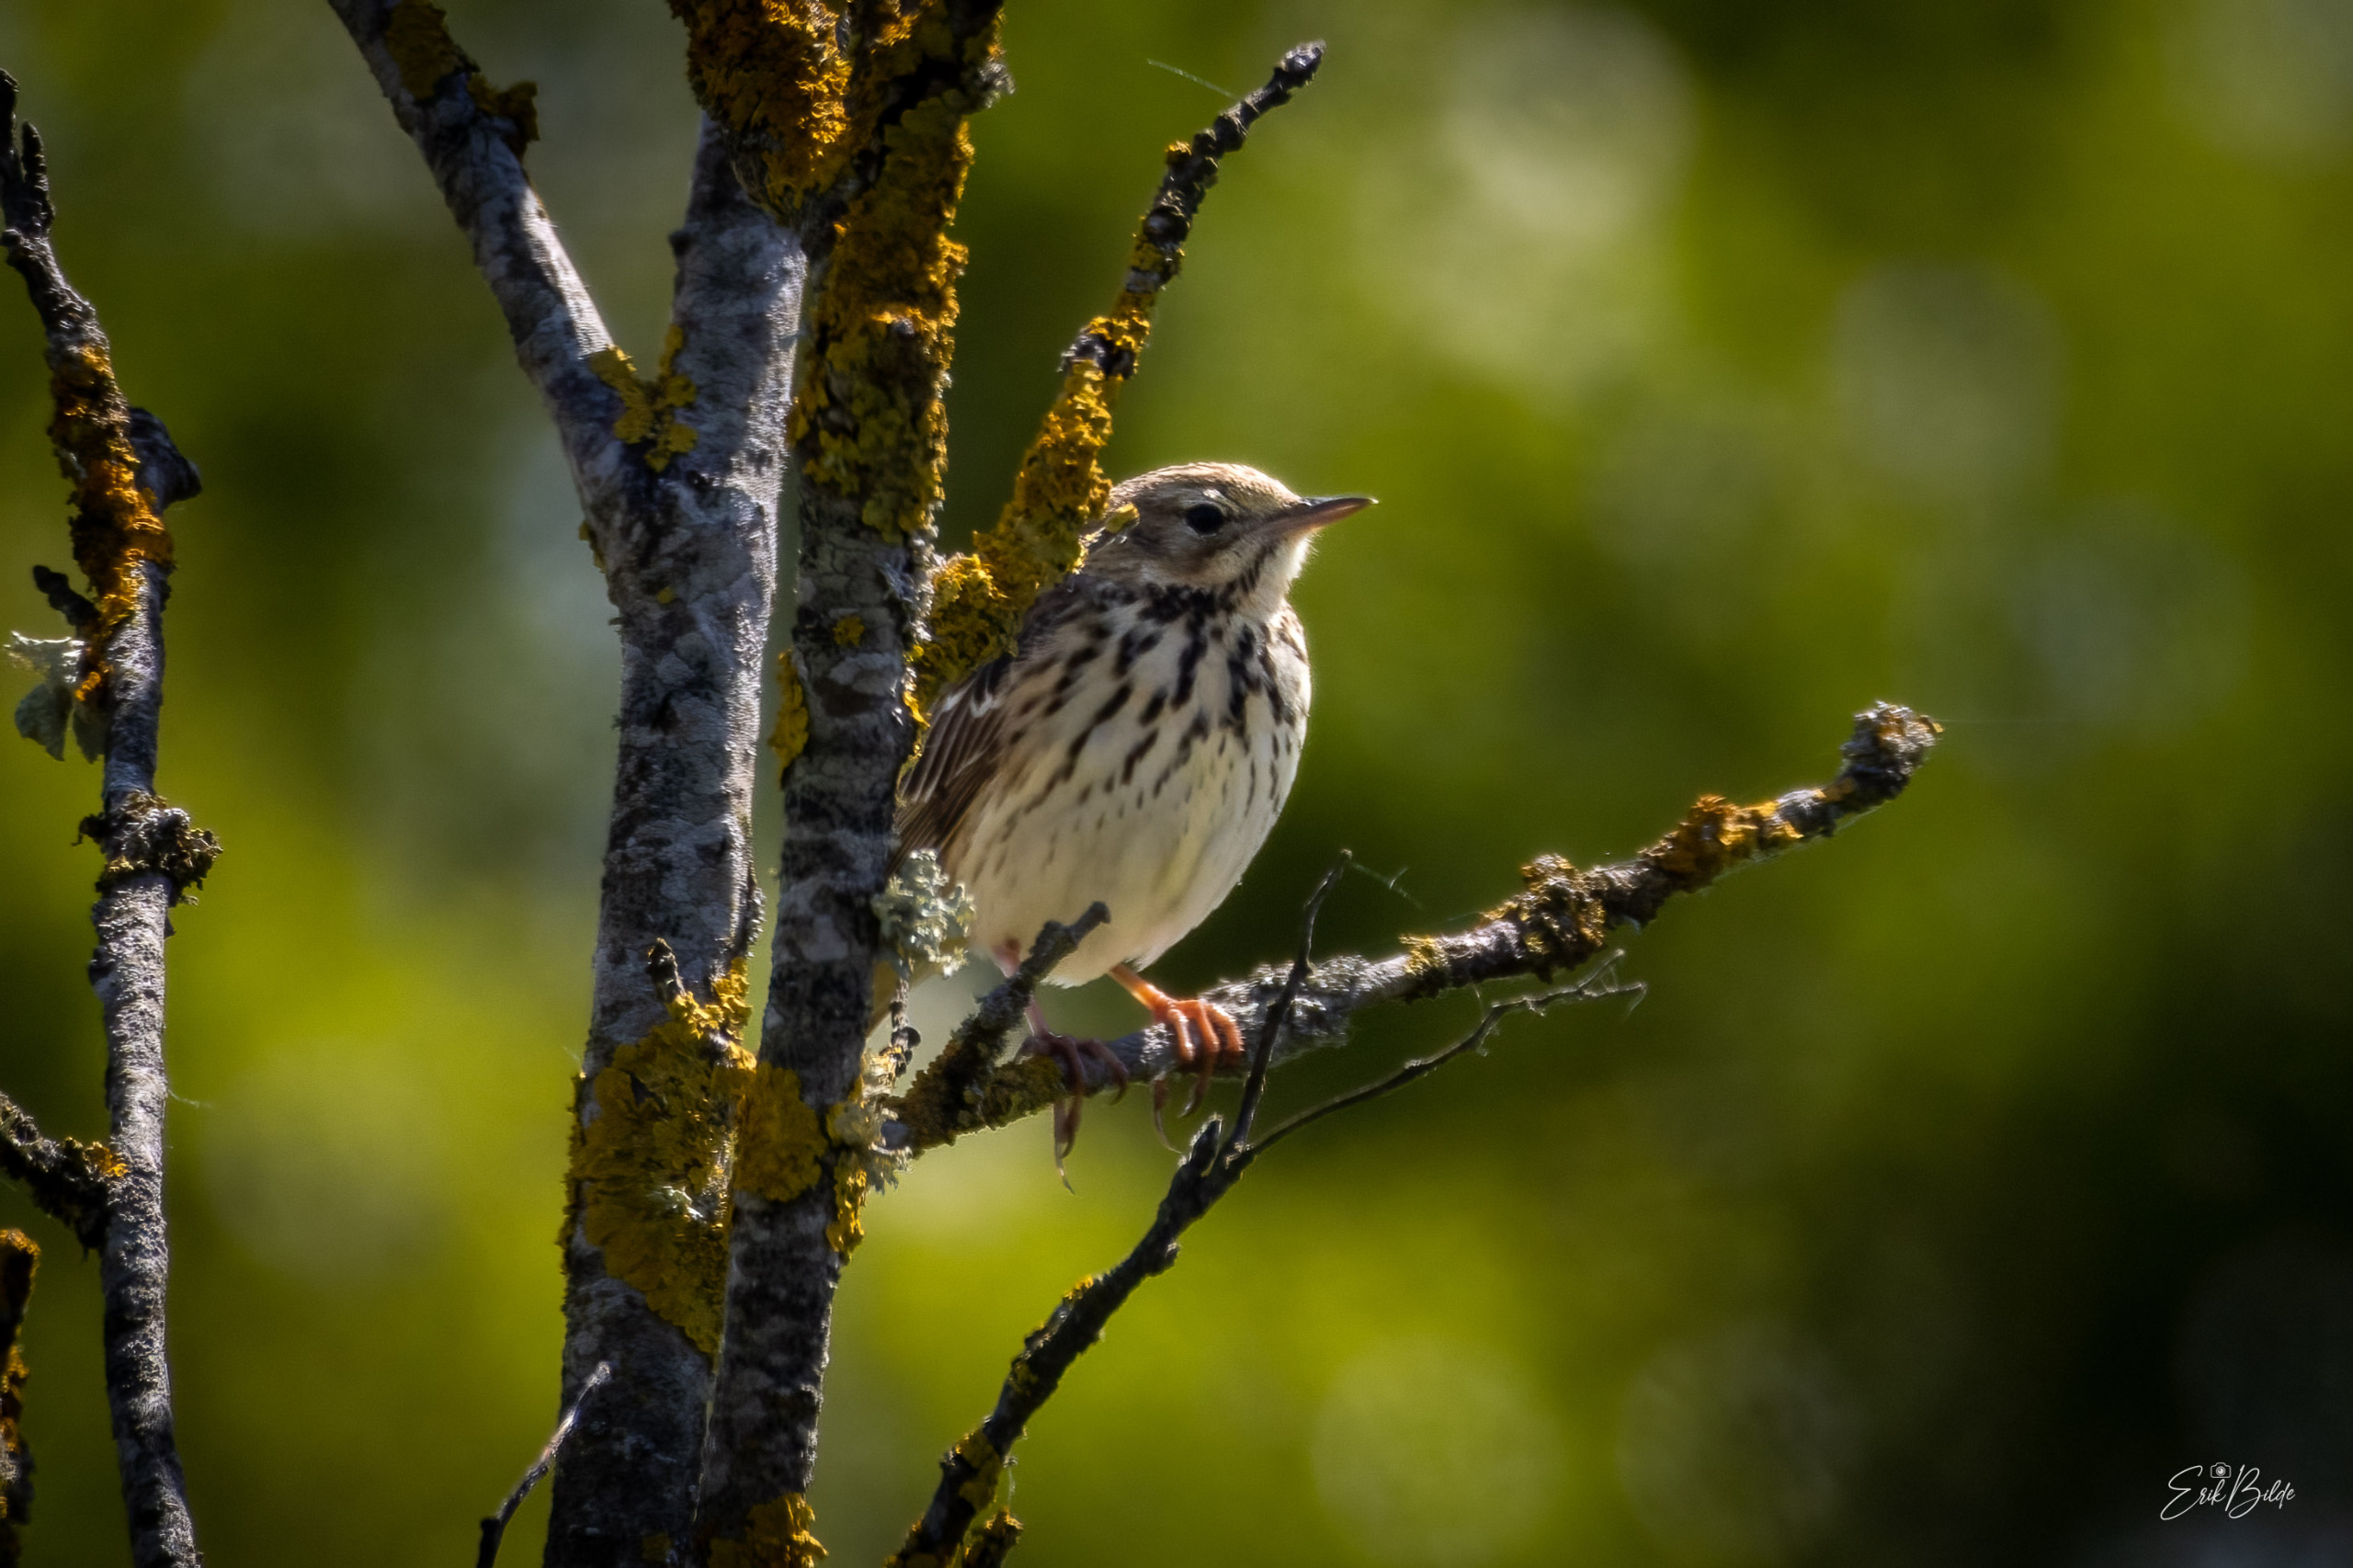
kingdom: Animalia
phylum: Chordata
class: Aves
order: Passeriformes
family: Motacillidae
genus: Anthus
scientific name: Anthus trivialis
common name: Skovpiber
